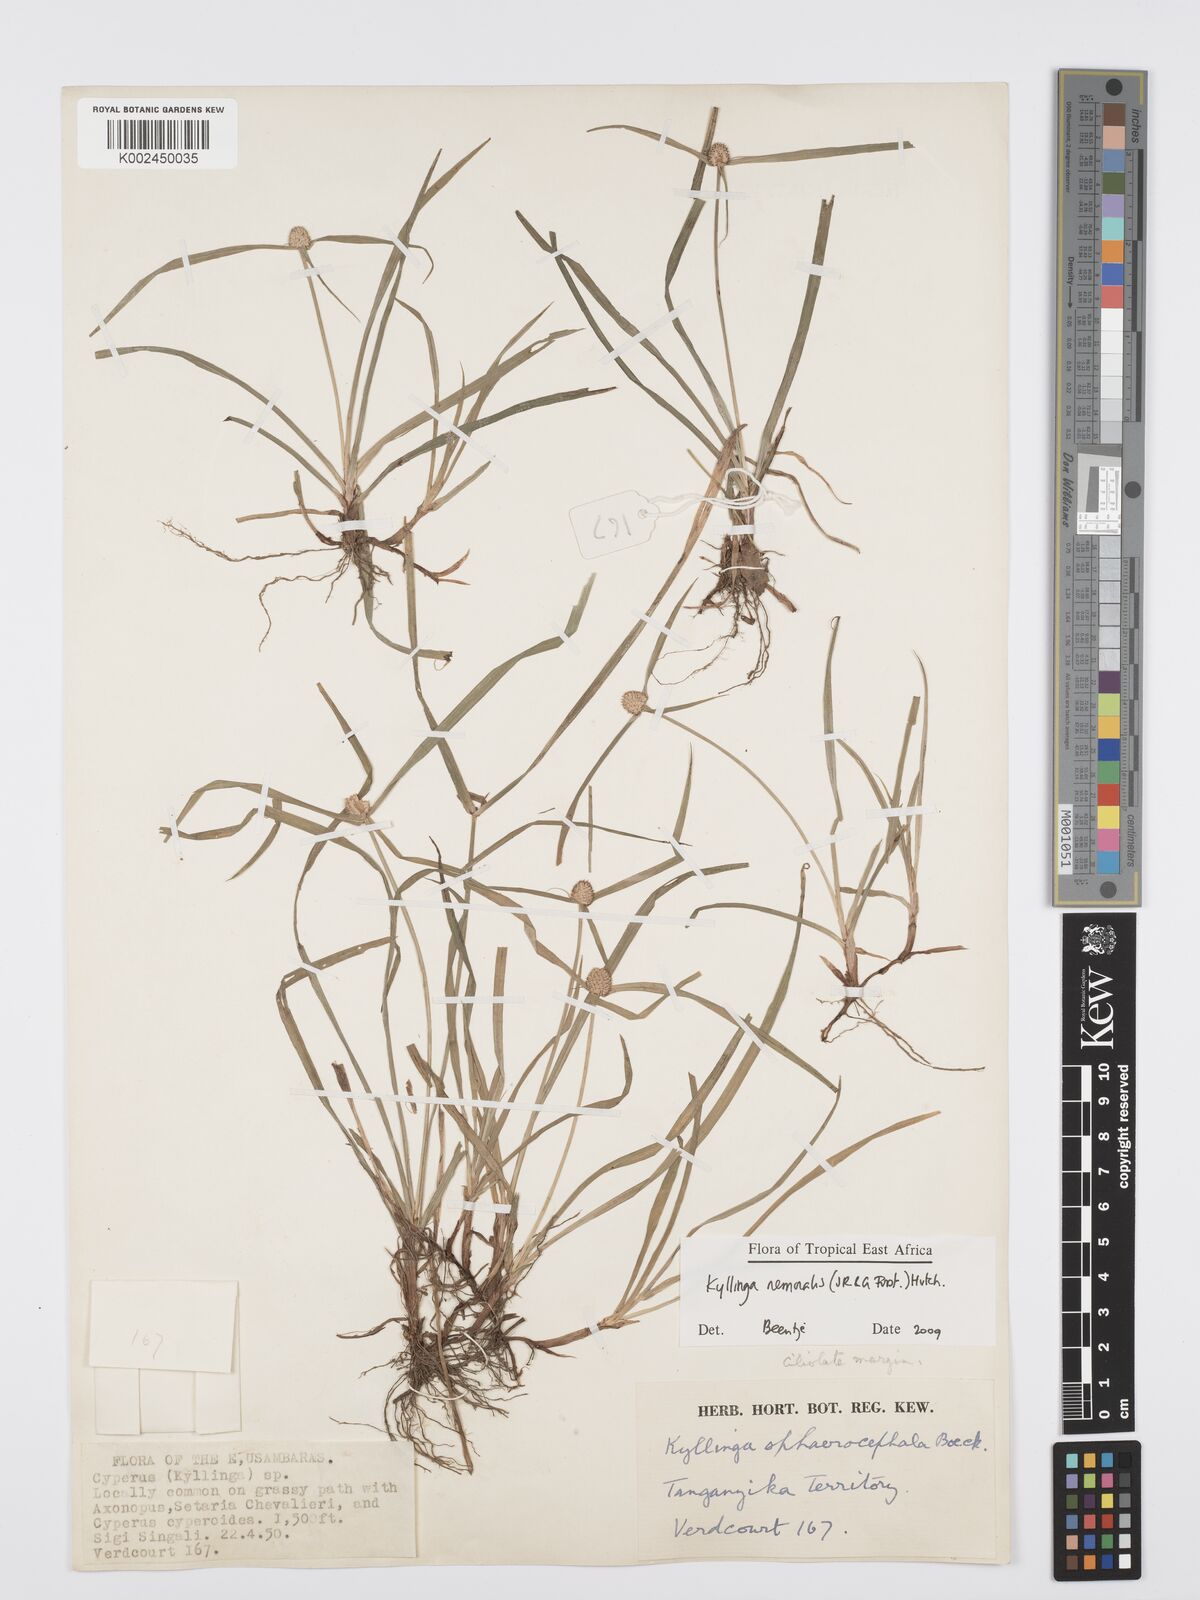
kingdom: Plantae
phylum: Tracheophyta
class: Liliopsida
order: Poales
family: Cyperaceae
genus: Cyperus
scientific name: Cyperus nemoralis
